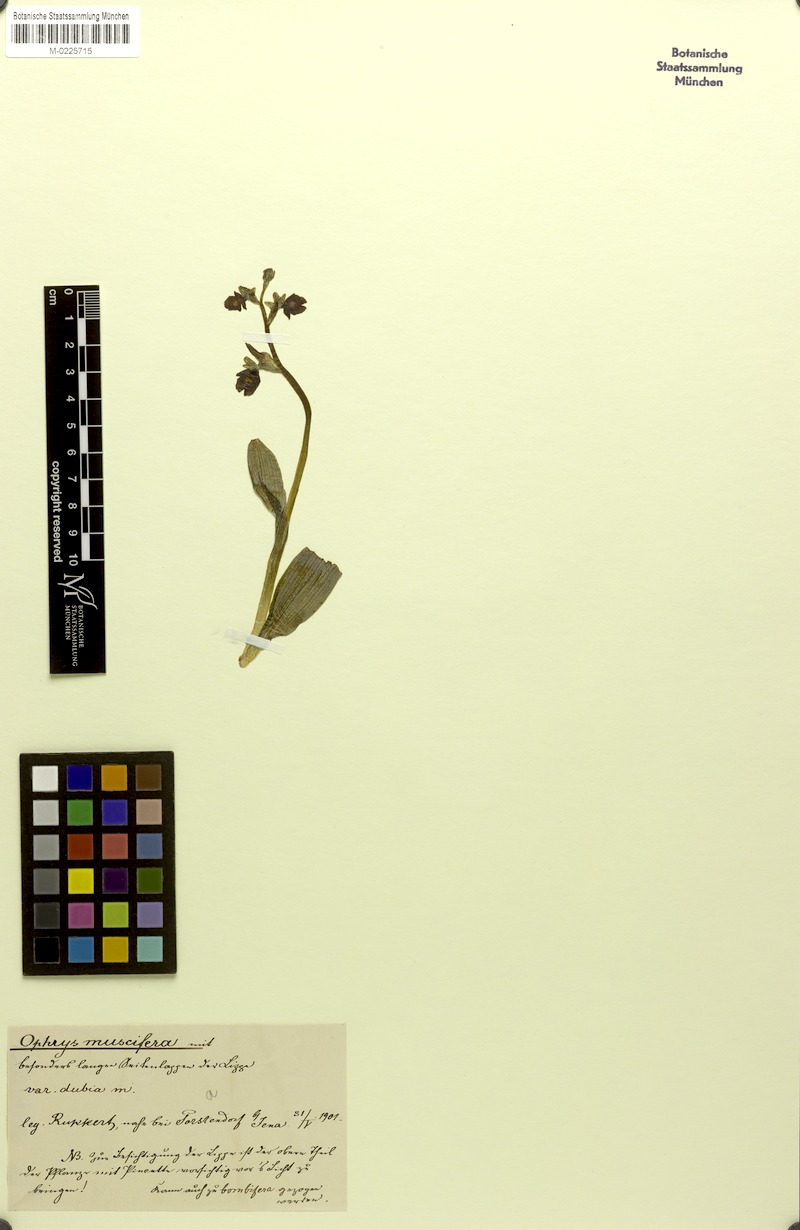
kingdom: Plantae
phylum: Tracheophyta
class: Liliopsida
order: Asparagales
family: Orchidaceae
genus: Ophrys
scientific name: Ophrys insectifera
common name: Fly orchid
